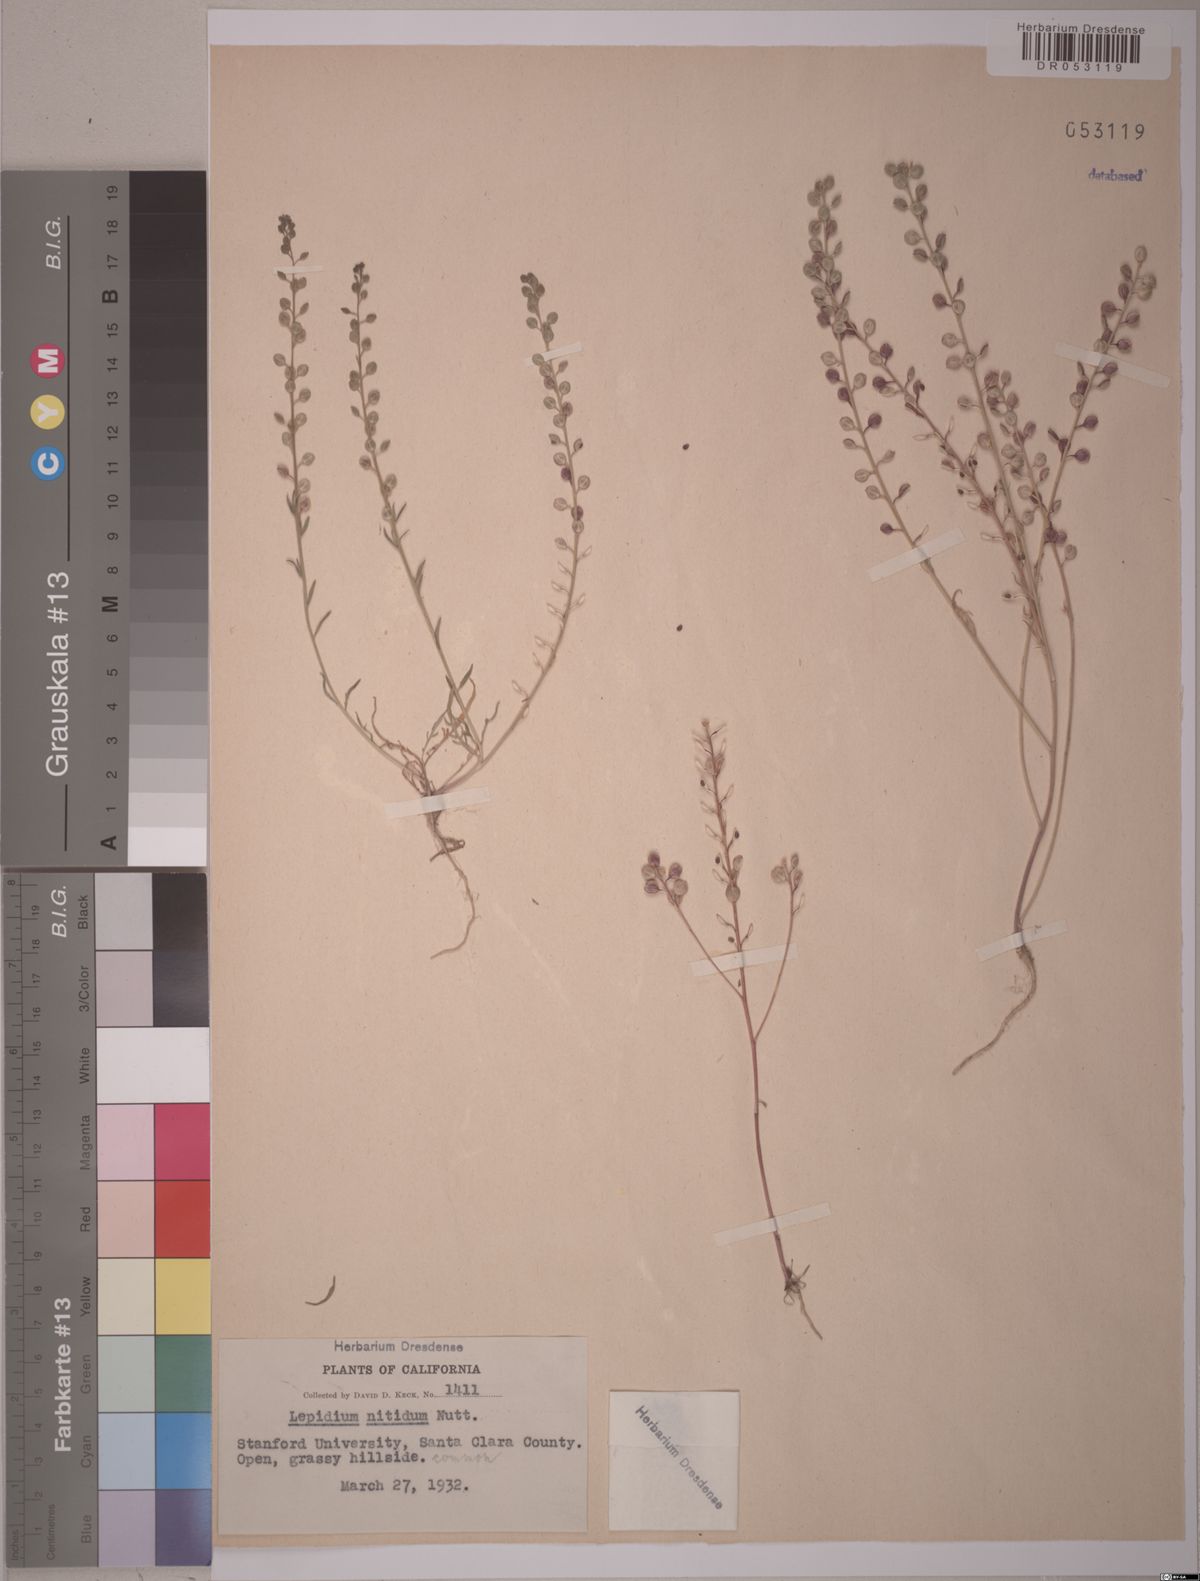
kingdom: Plantae
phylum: Tracheophyta
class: Magnoliopsida
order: Brassicales
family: Brassicaceae
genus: Lepidium
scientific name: Lepidium nitidum
